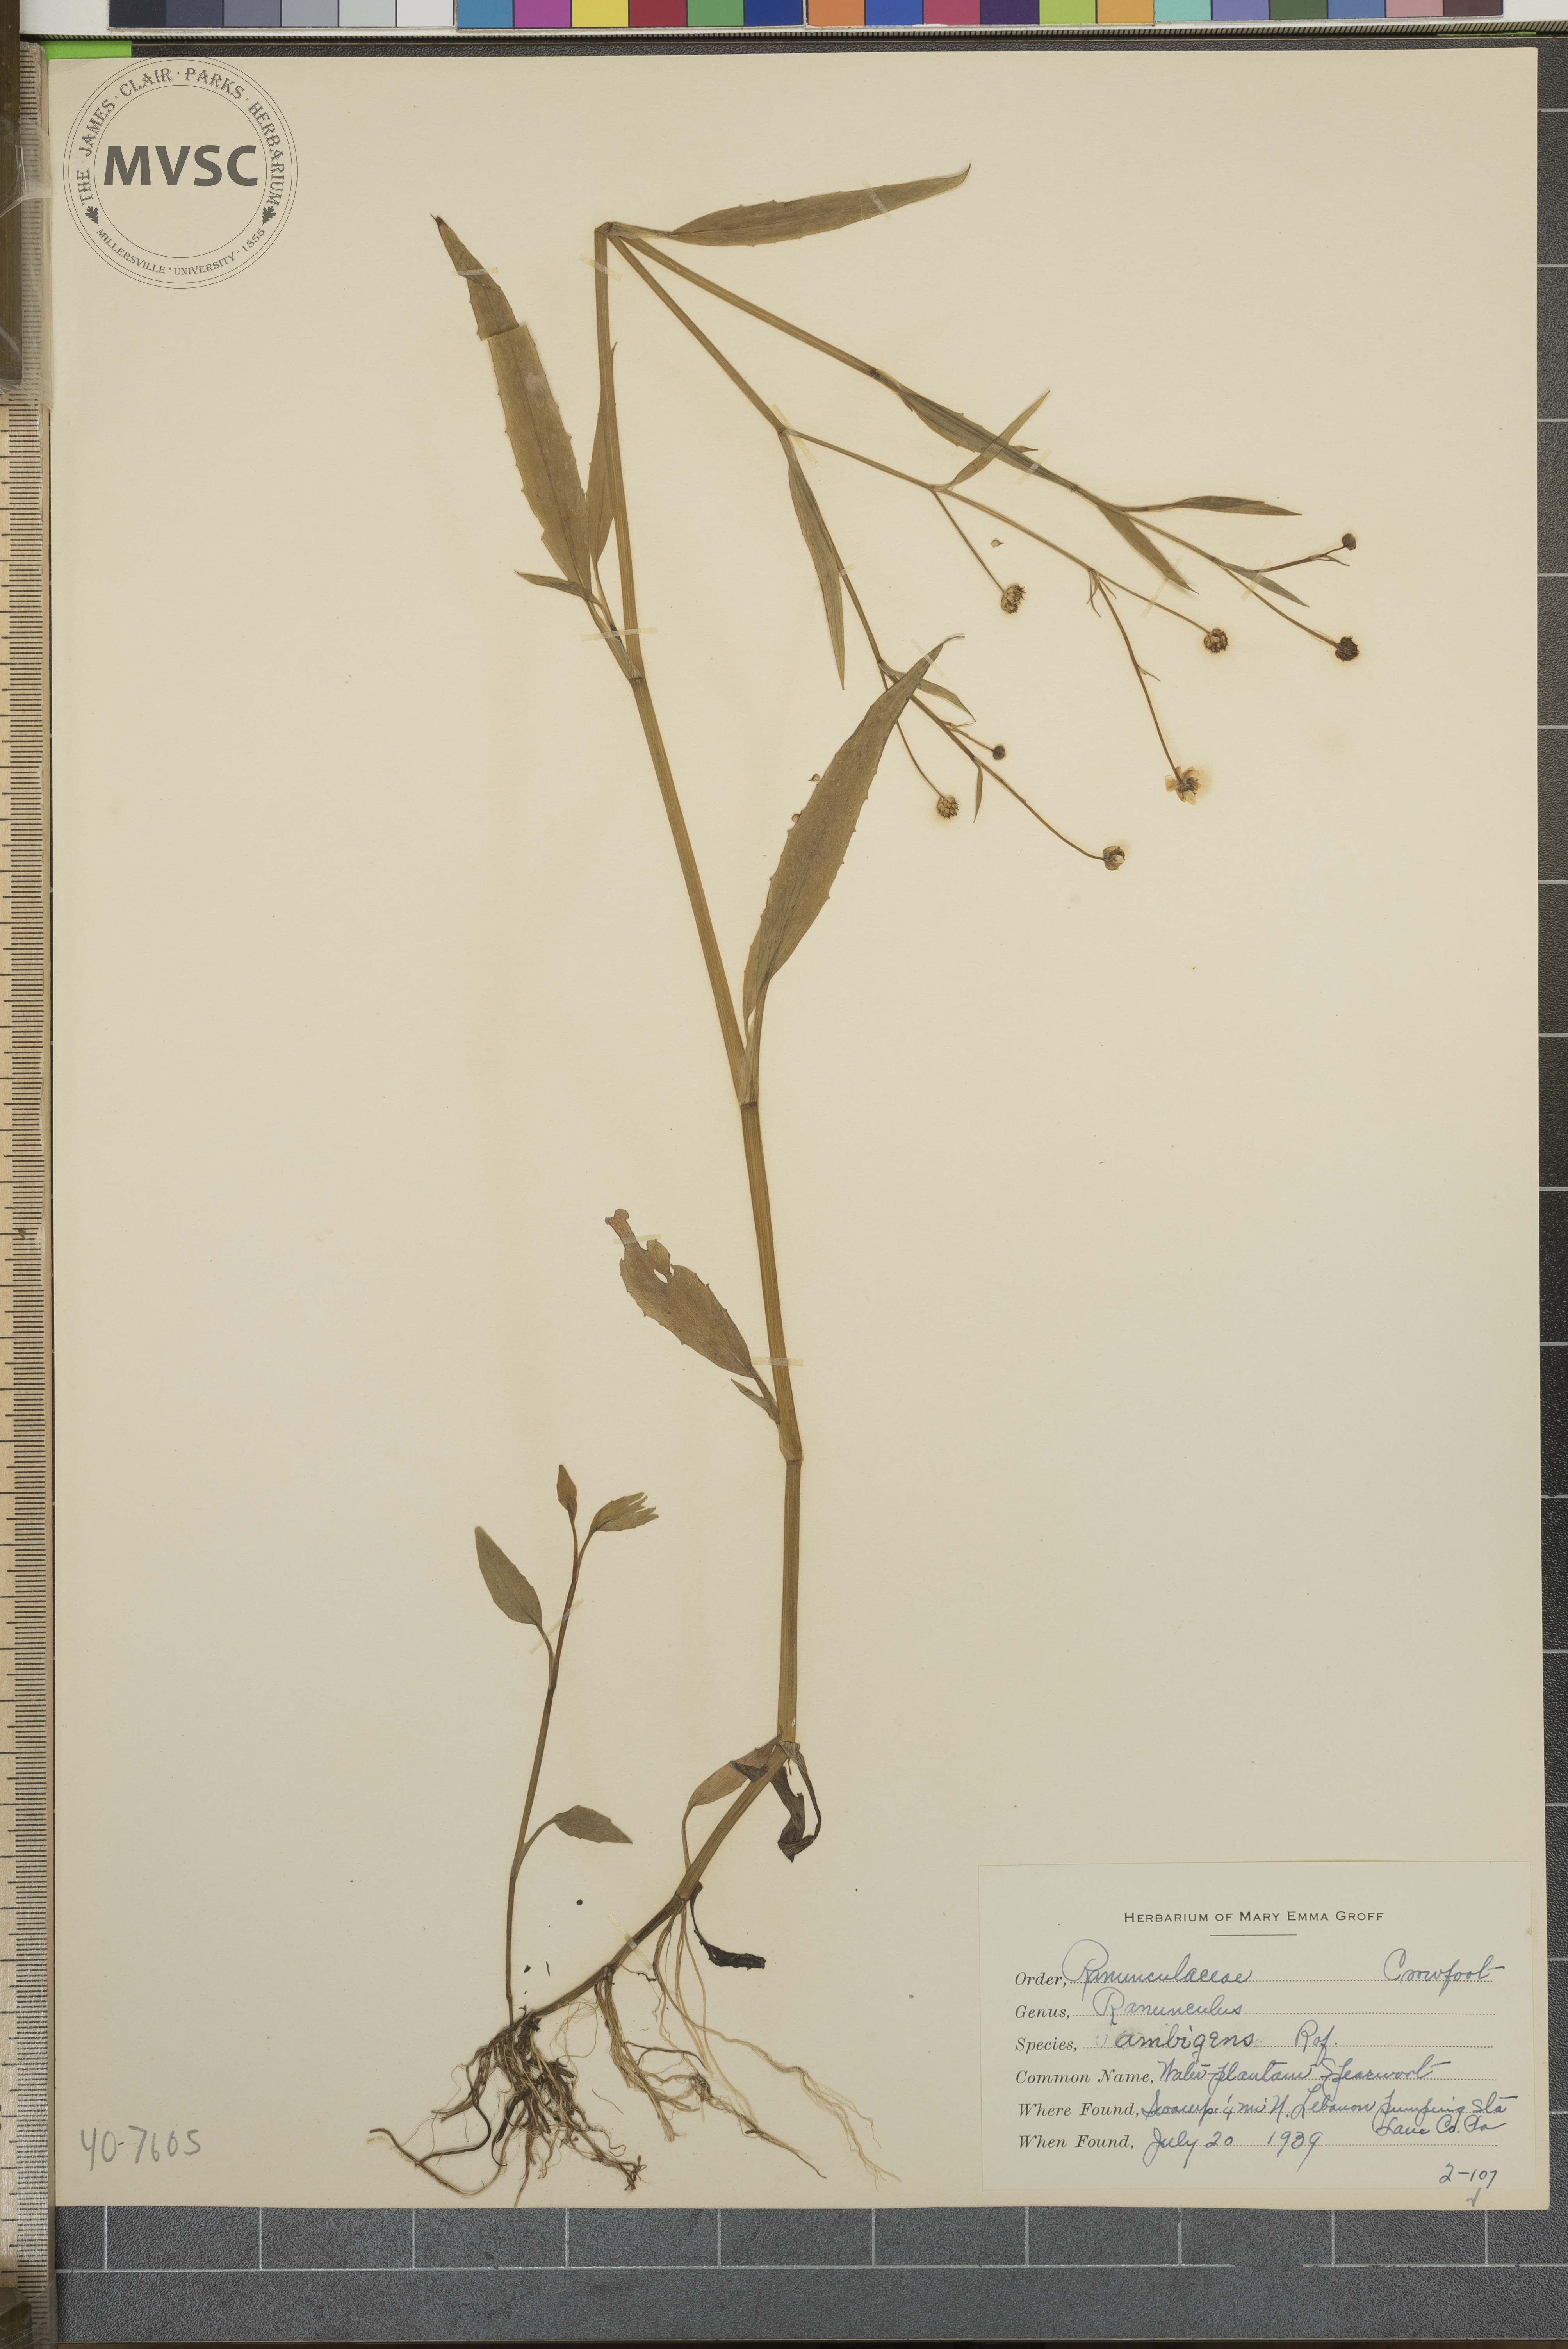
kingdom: Plantae
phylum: Tracheophyta
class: Magnoliopsida
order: Ranunculales
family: Ranunculaceae
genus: Ranunculus
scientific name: Ranunculus ambigens
